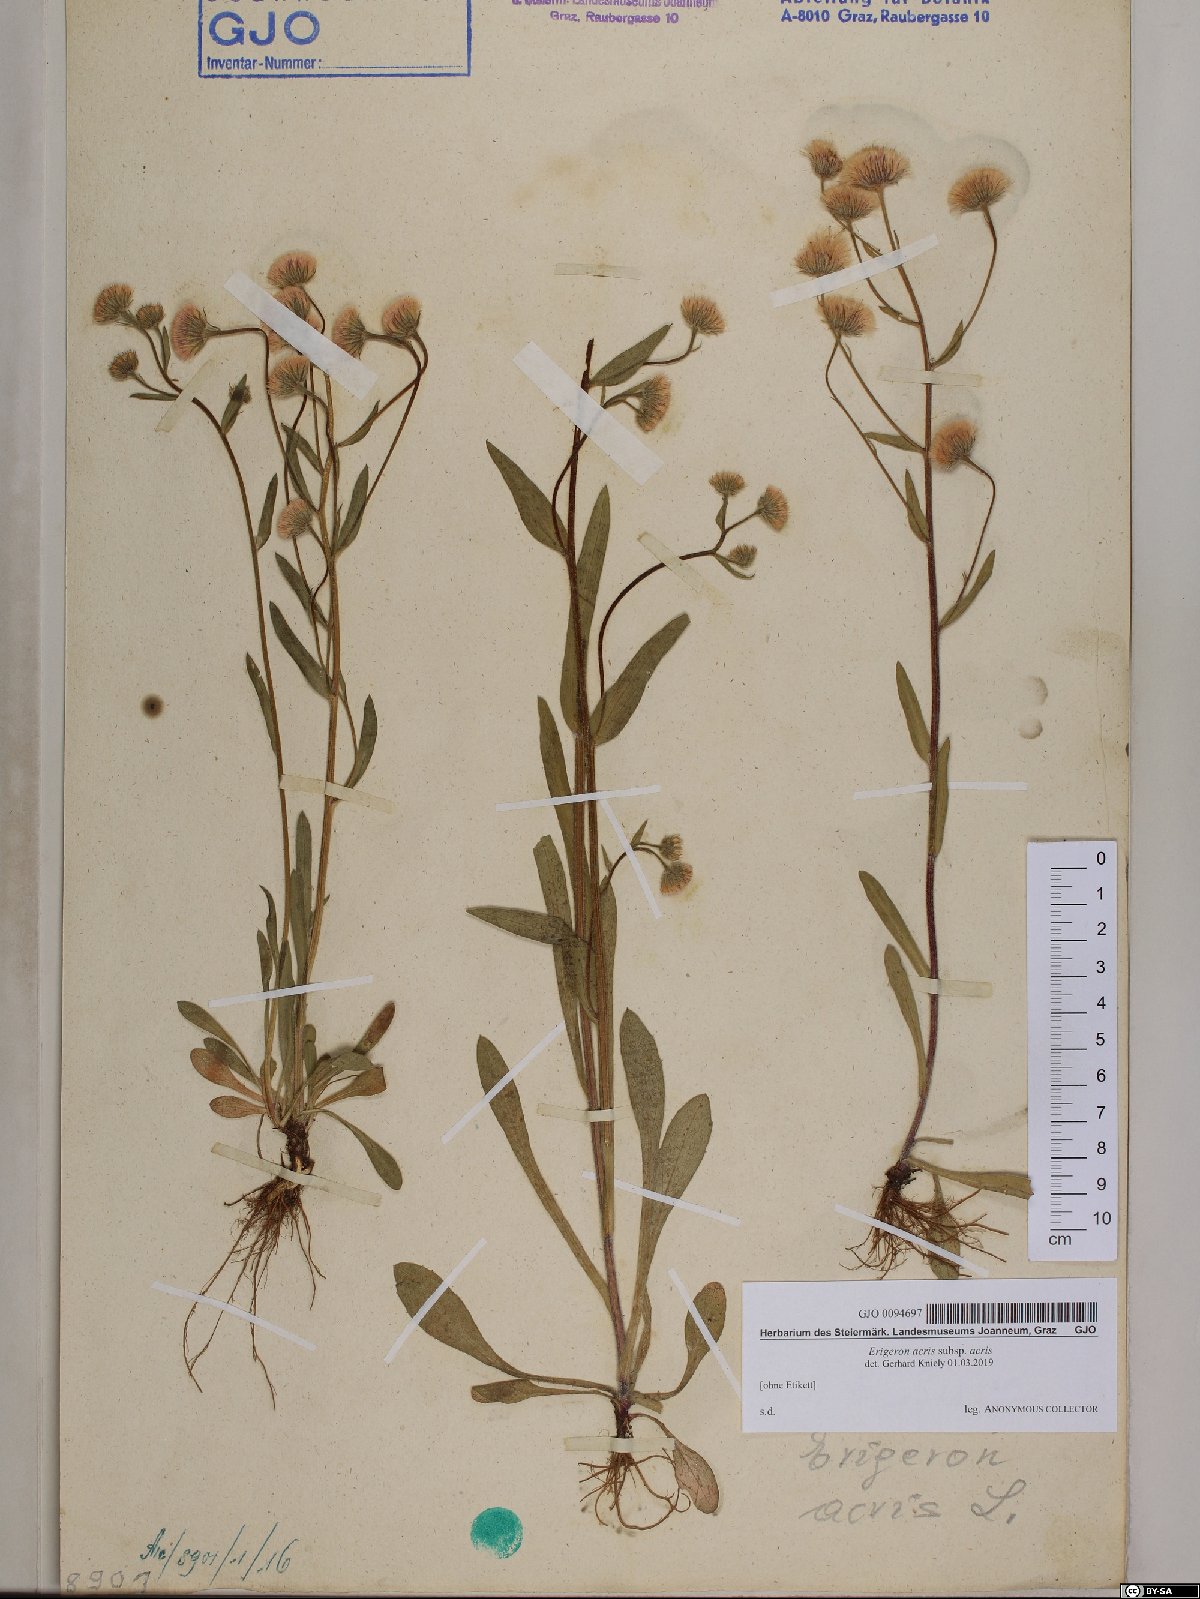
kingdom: Plantae
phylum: Tracheophyta
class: Magnoliopsida
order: Asterales
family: Asteraceae
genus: Erigeron
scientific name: Erigeron acris
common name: Blue fleabane
